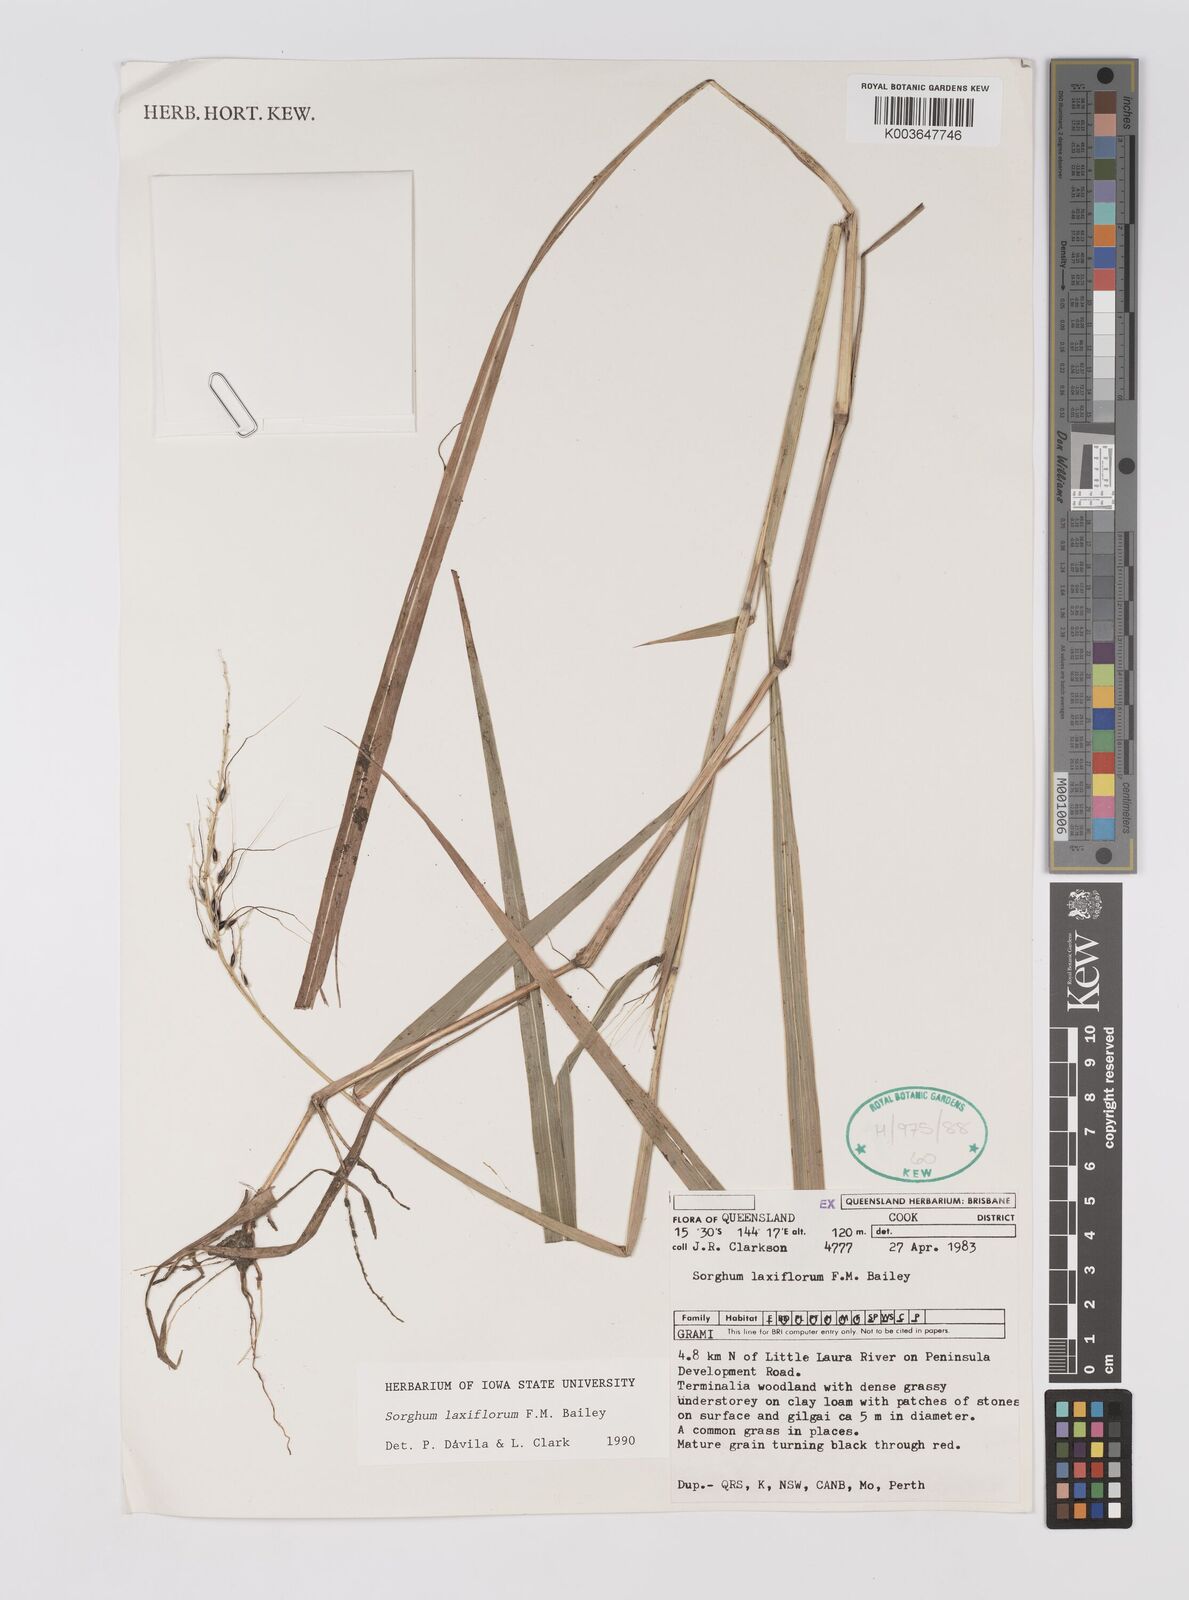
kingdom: Plantae
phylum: Tracheophyta
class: Liliopsida
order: Poales
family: Poaceae
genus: Sorghum
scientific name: Sorghum laxiflorum
